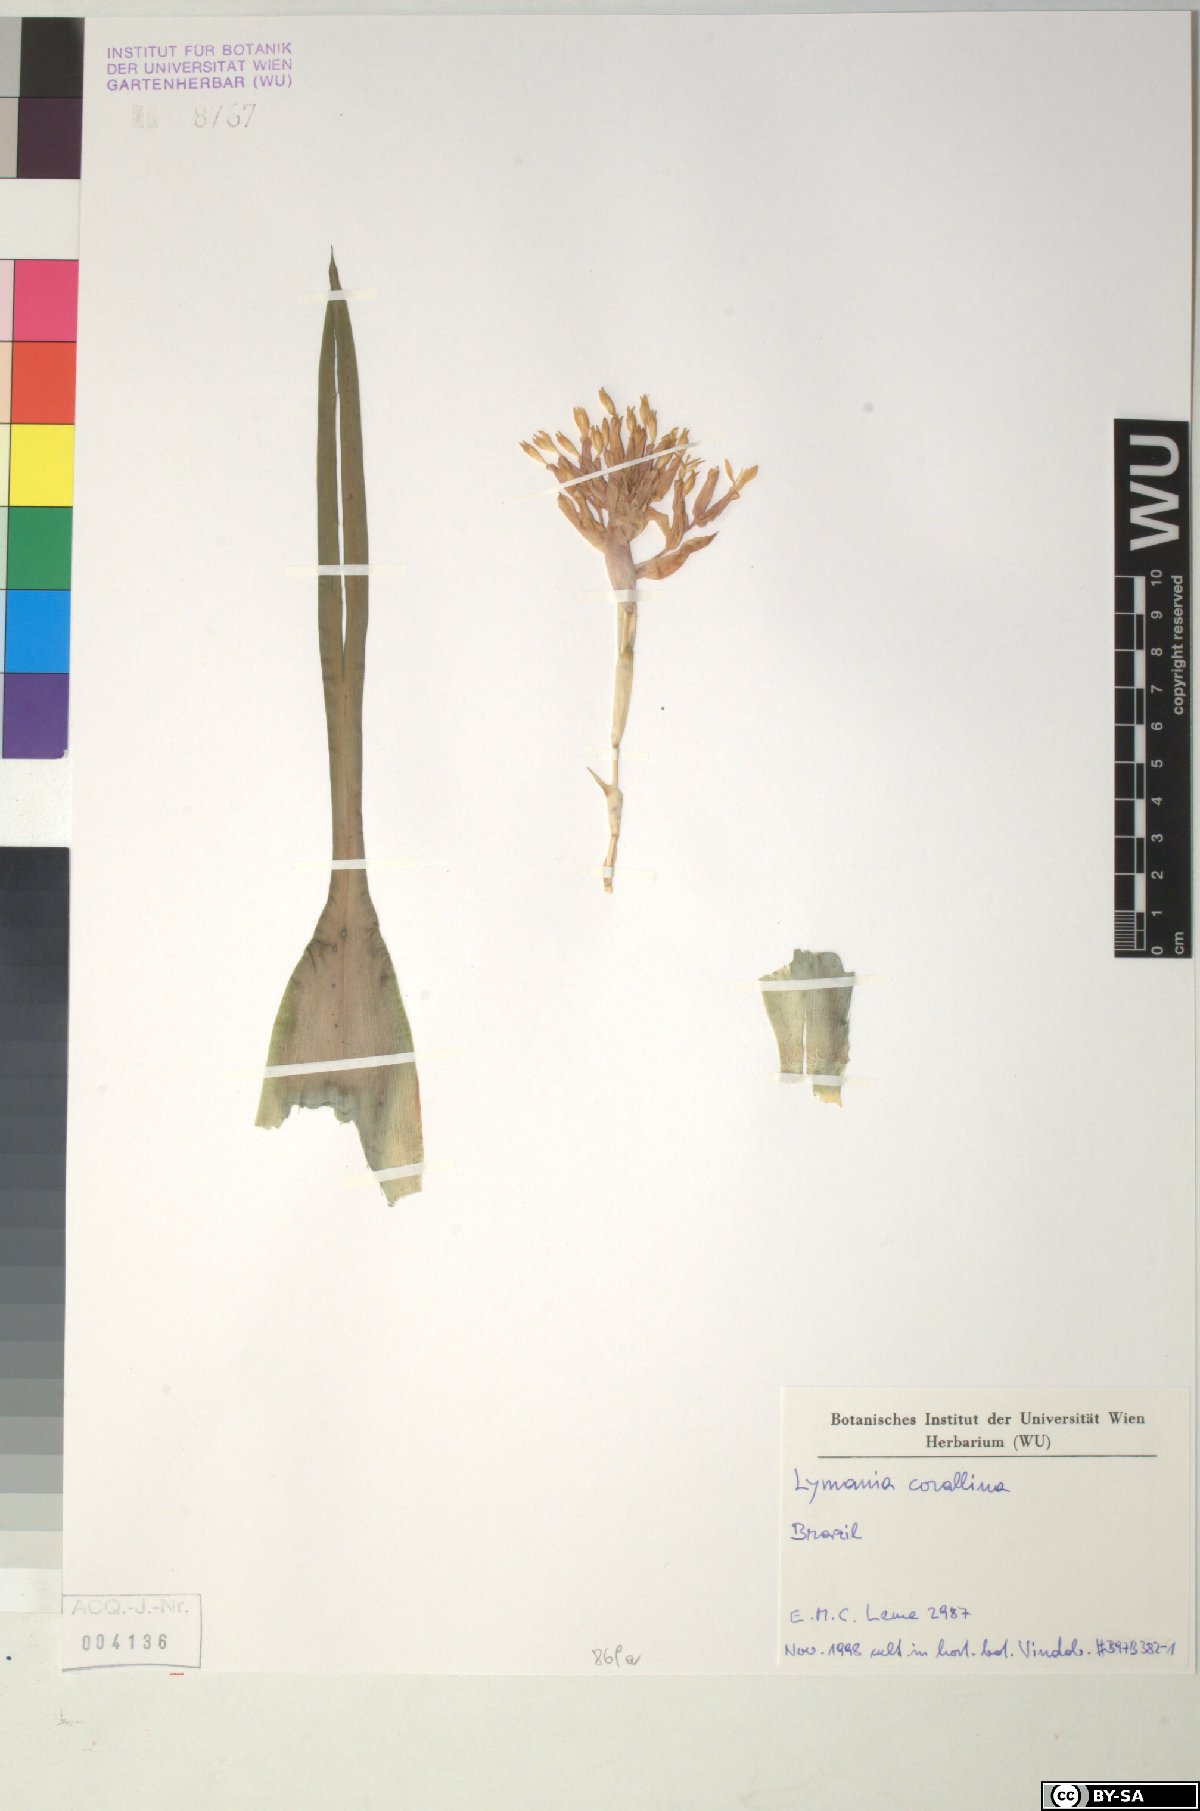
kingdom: Plantae
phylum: Tracheophyta
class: Liliopsida
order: Poales
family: Bromeliaceae
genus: Lymania
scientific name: Lymania corallina
